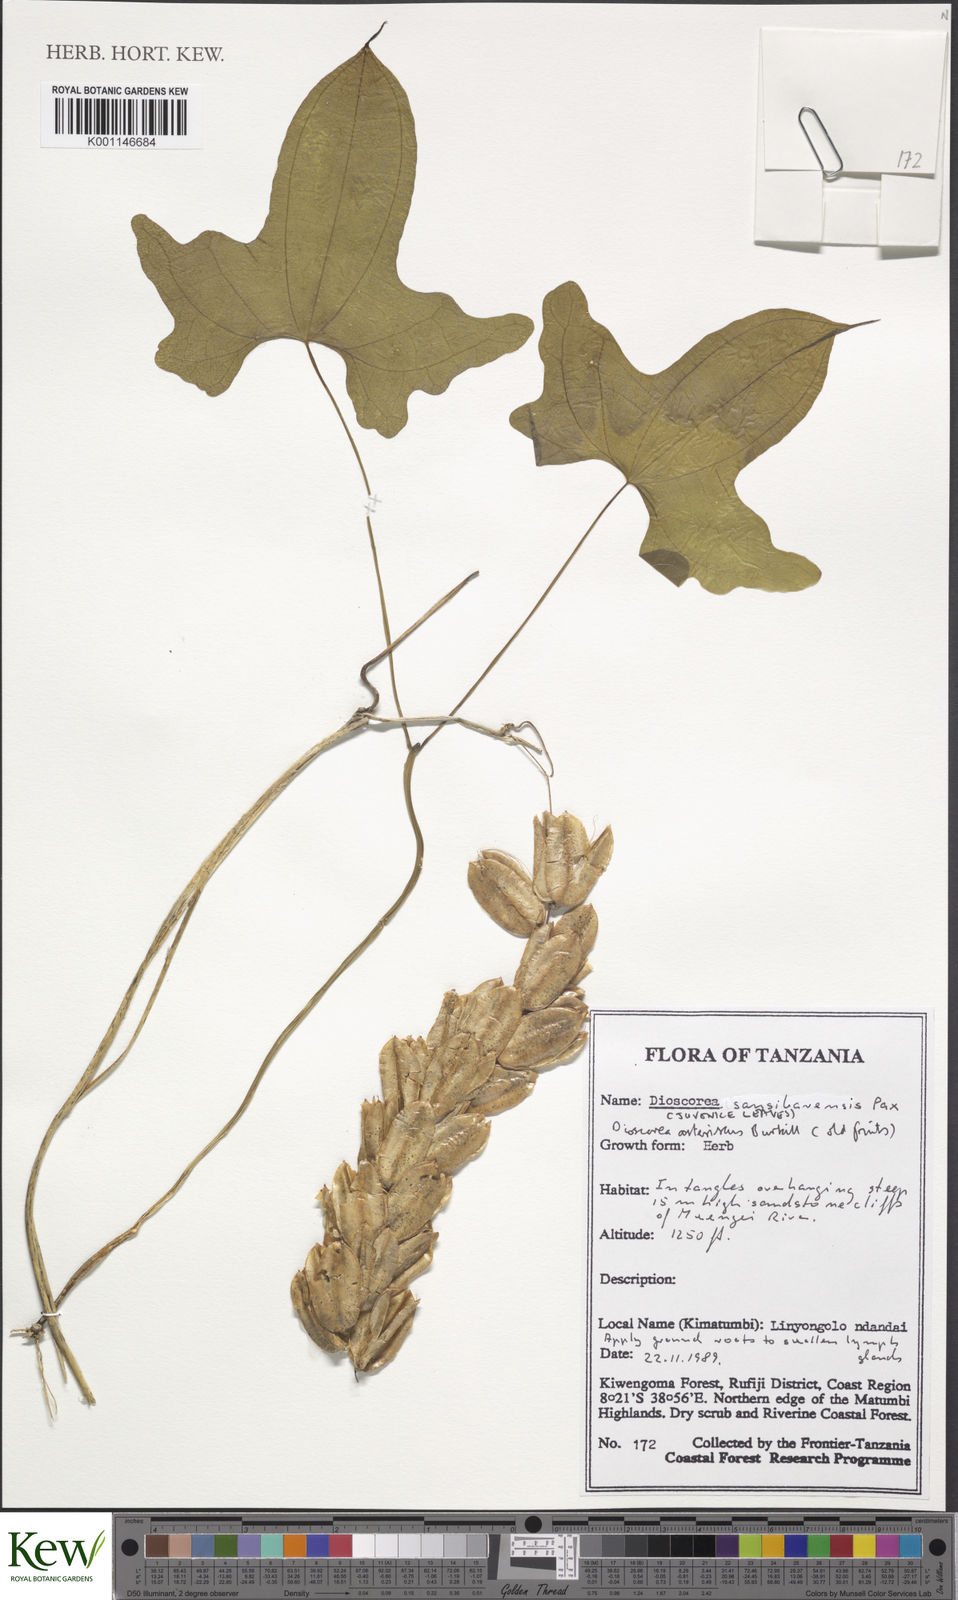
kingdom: Plantae
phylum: Tracheophyta
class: Liliopsida
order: Dioscoreales
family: Dioscoreaceae
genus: Dioscorea
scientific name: Dioscorea sansibarensis
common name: Zanzibar yam
